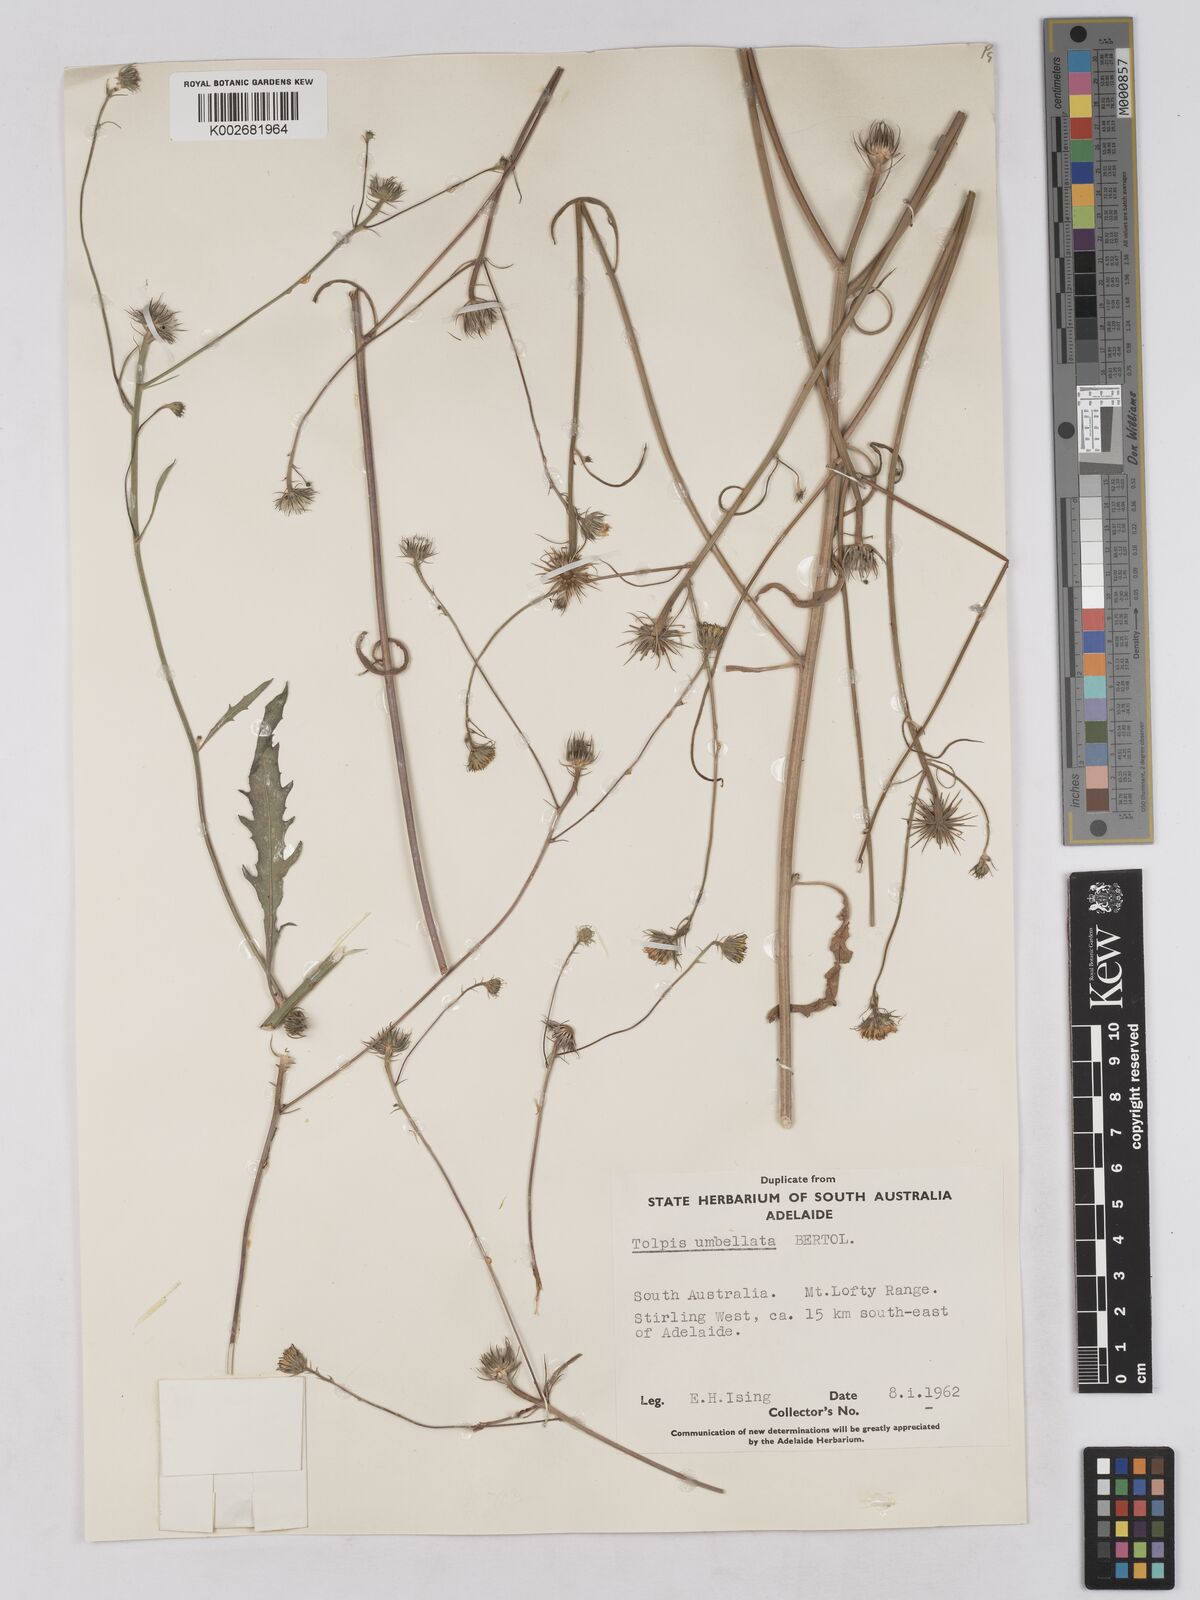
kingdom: Plantae
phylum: Tracheophyta
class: Magnoliopsida
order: Asterales
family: Asteraceae
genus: Tolpis
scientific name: Tolpis umbellata
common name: Yellow hawkweed
